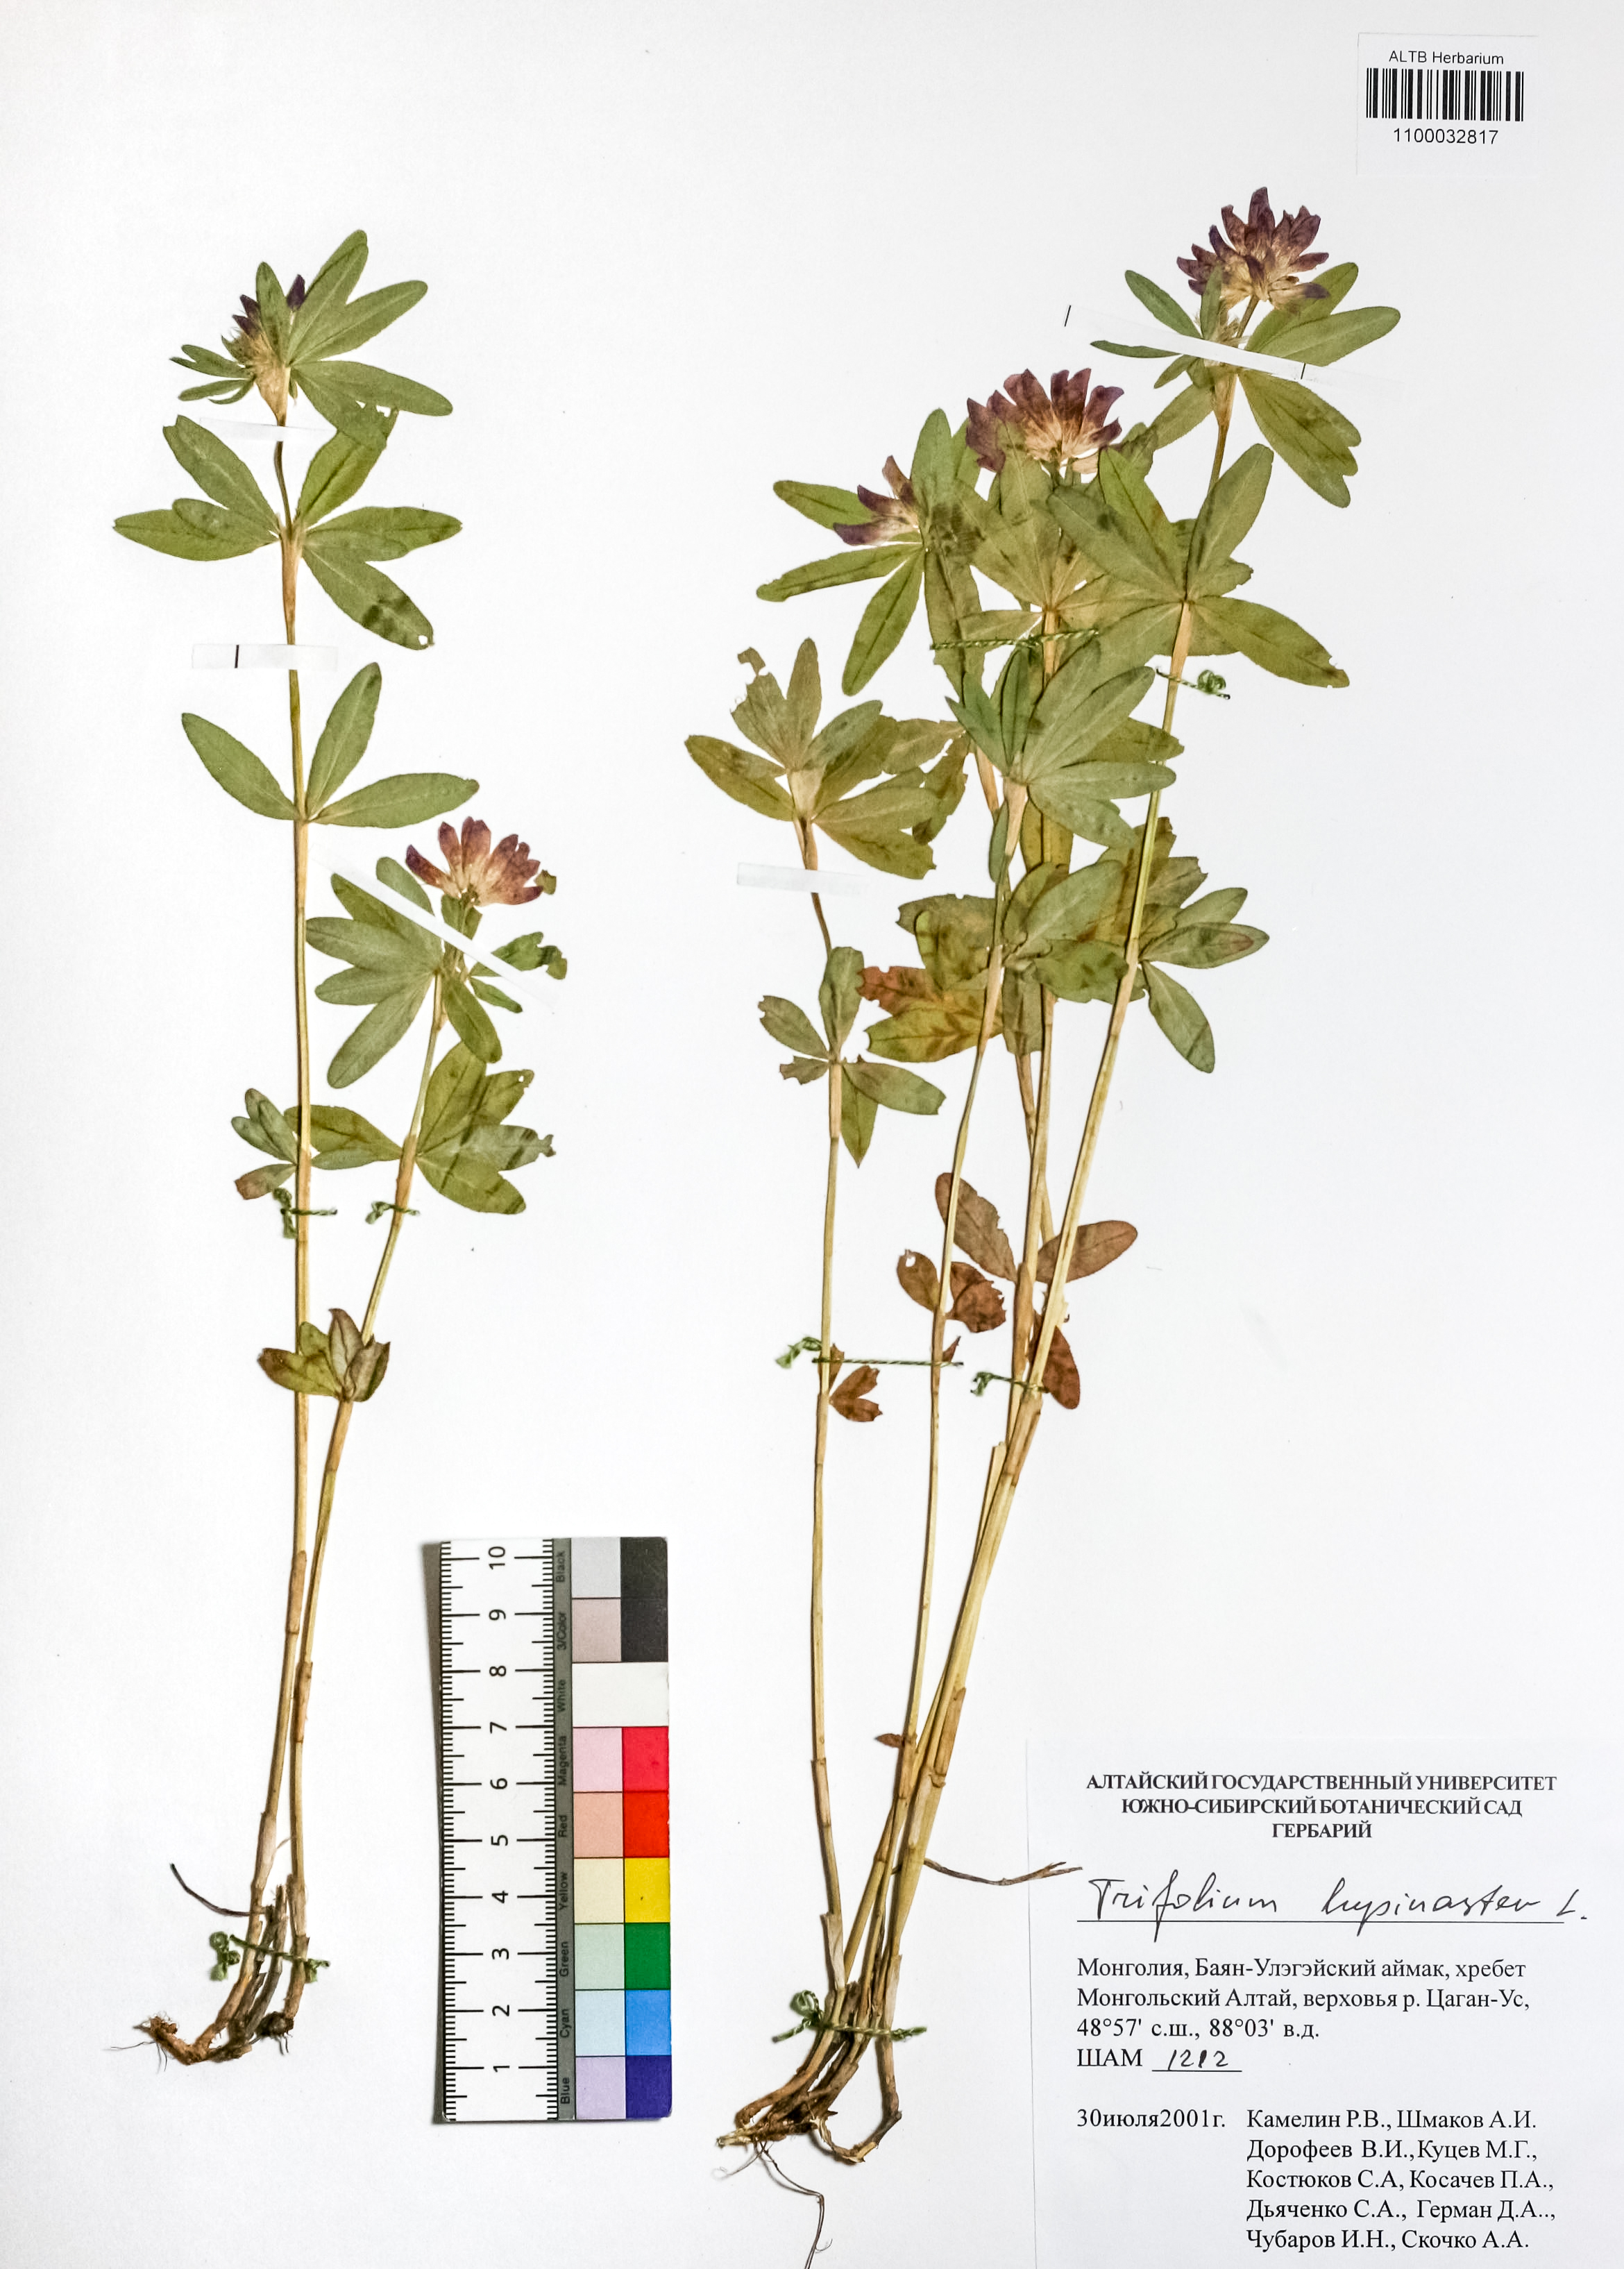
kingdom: Plantae
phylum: Tracheophyta
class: Magnoliopsida
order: Fabales
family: Fabaceae
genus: Trifolium
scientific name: Trifolium lupinaster
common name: Lupine clover
